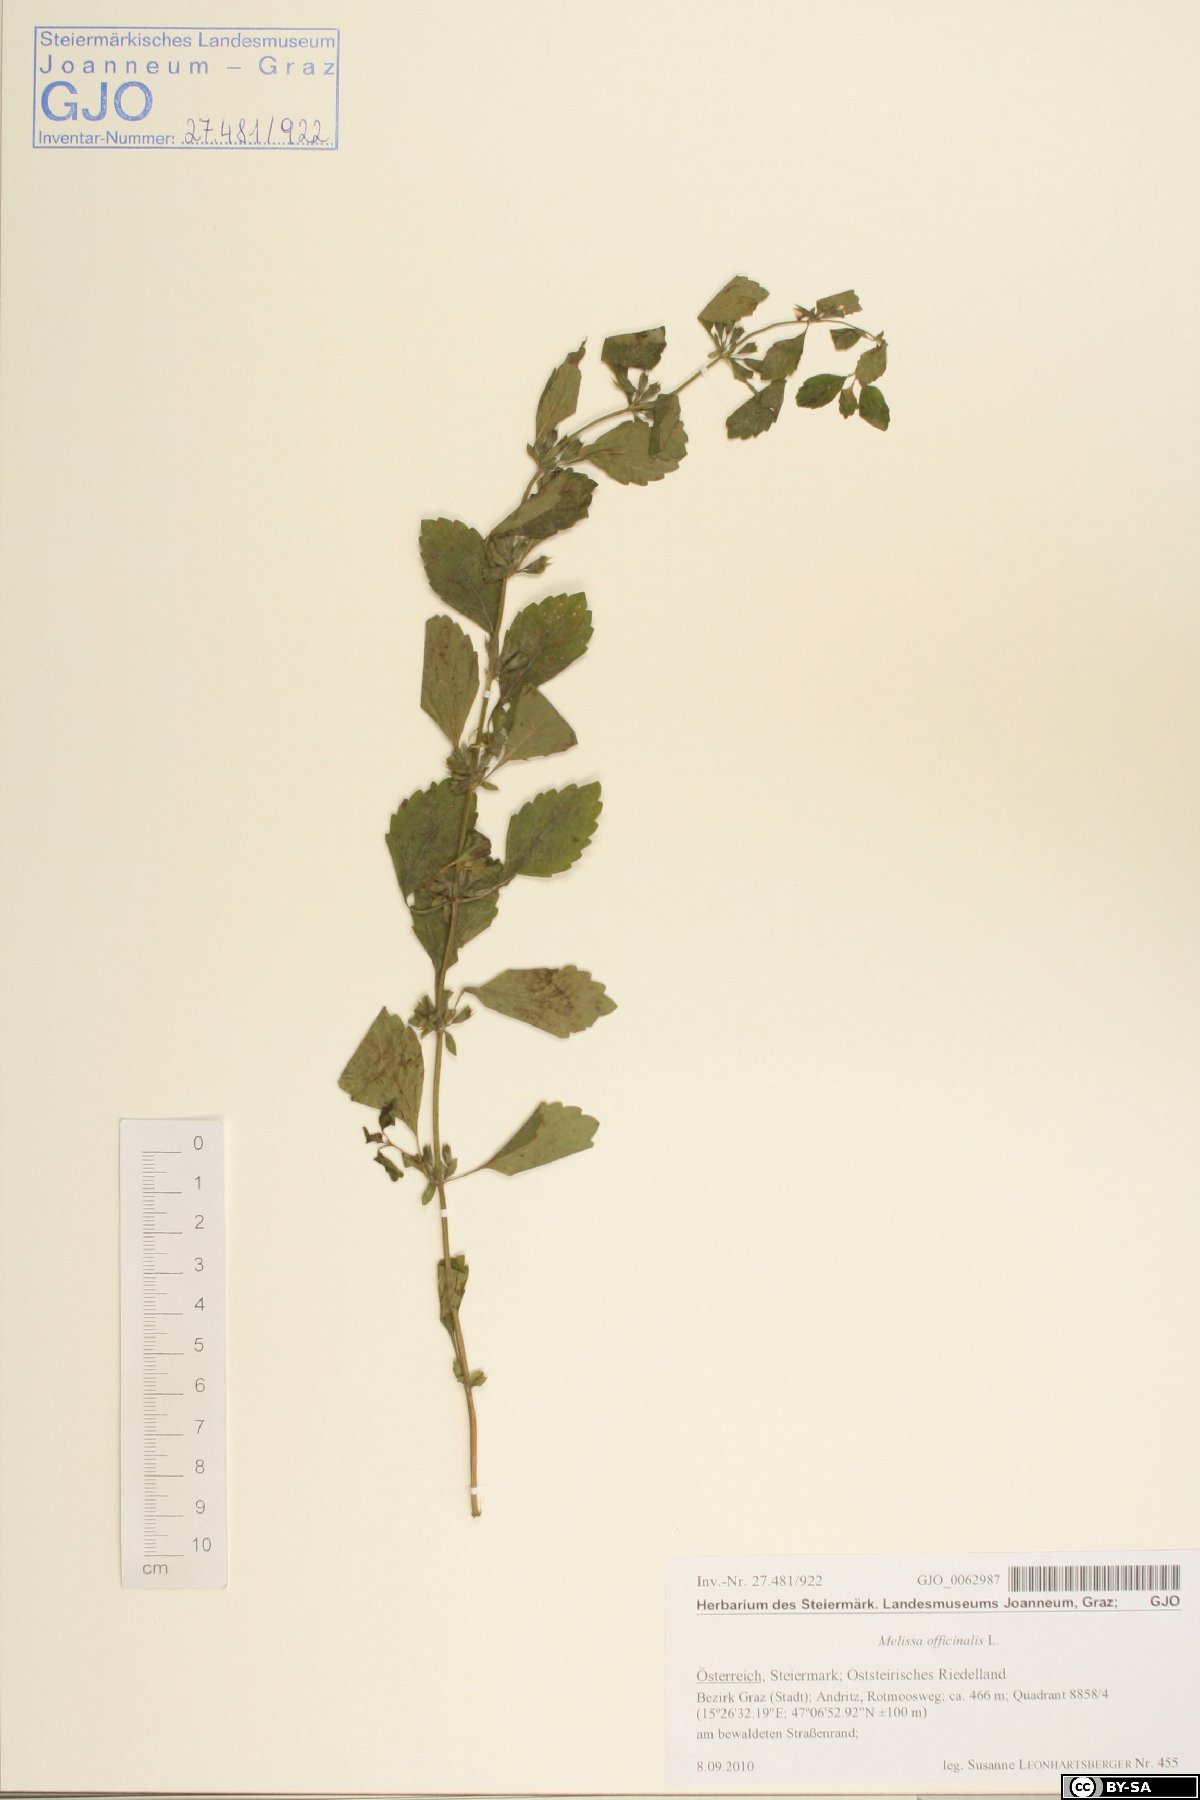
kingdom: Plantae
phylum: Tracheophyta
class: Magnoliopsida
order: Lamiales
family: Lamiaceae
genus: Melissa
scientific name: Melissa officinalis
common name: Balm
